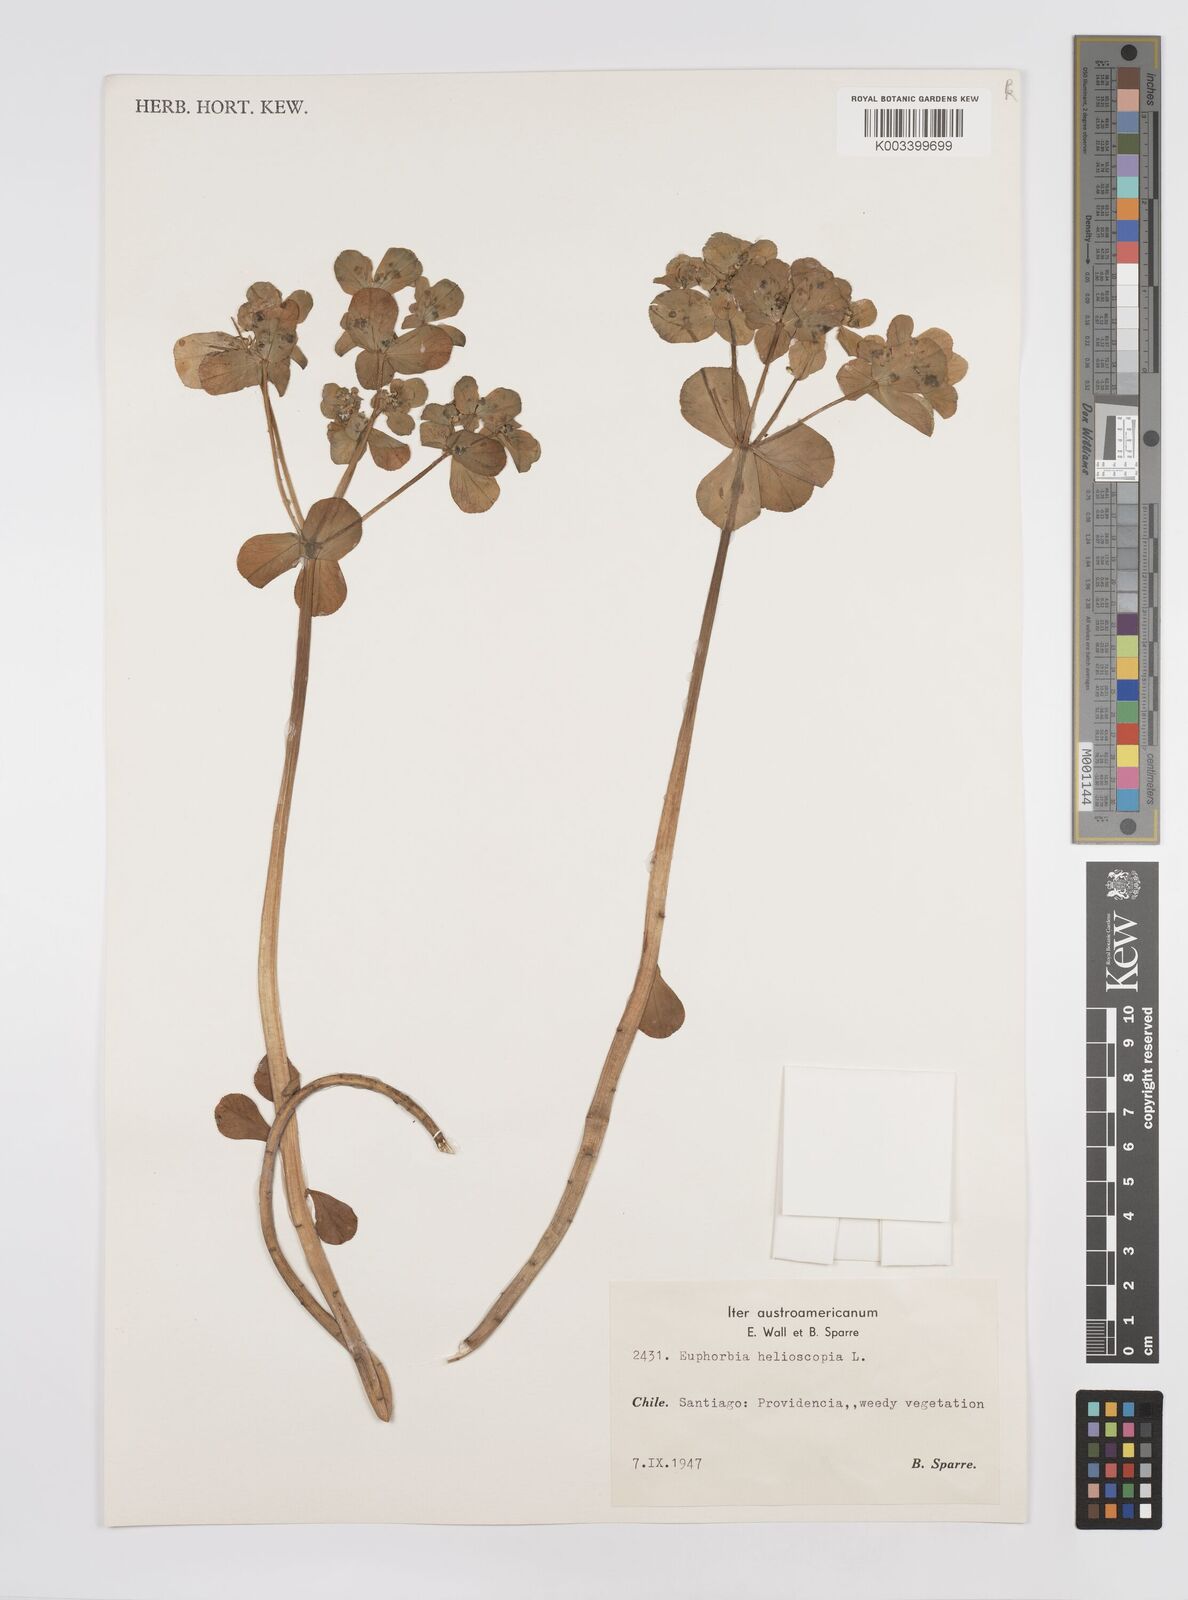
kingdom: Plantae
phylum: Tracheophyta
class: Magnoliopsida
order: Malpighiales
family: Euphorbiaceae
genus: Euphorbia
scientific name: Euphorbia helioscopia
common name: Sun spurge
